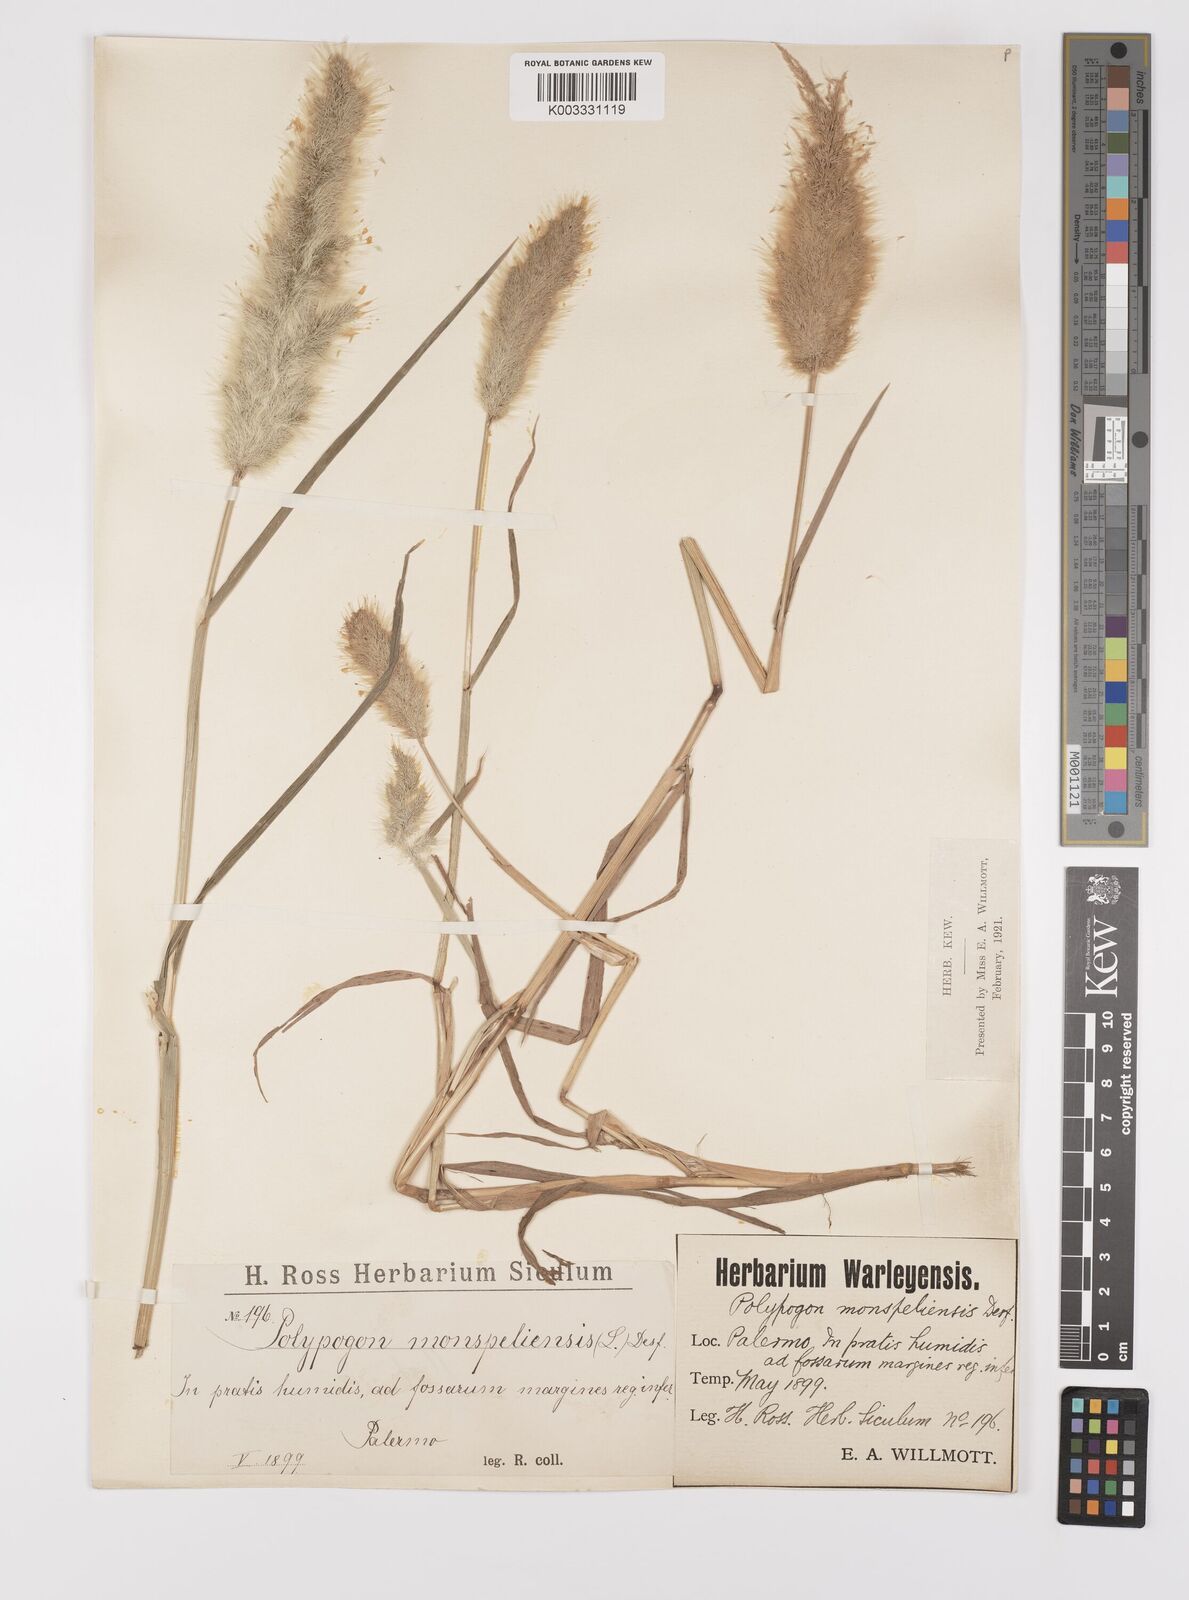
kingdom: Plantae
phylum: Tracheophyta
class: Liliopsida
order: Poales
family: Poaceae
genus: Polypogon
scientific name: Polypogon monspeliensis
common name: Annual rabbitsfoot grass
